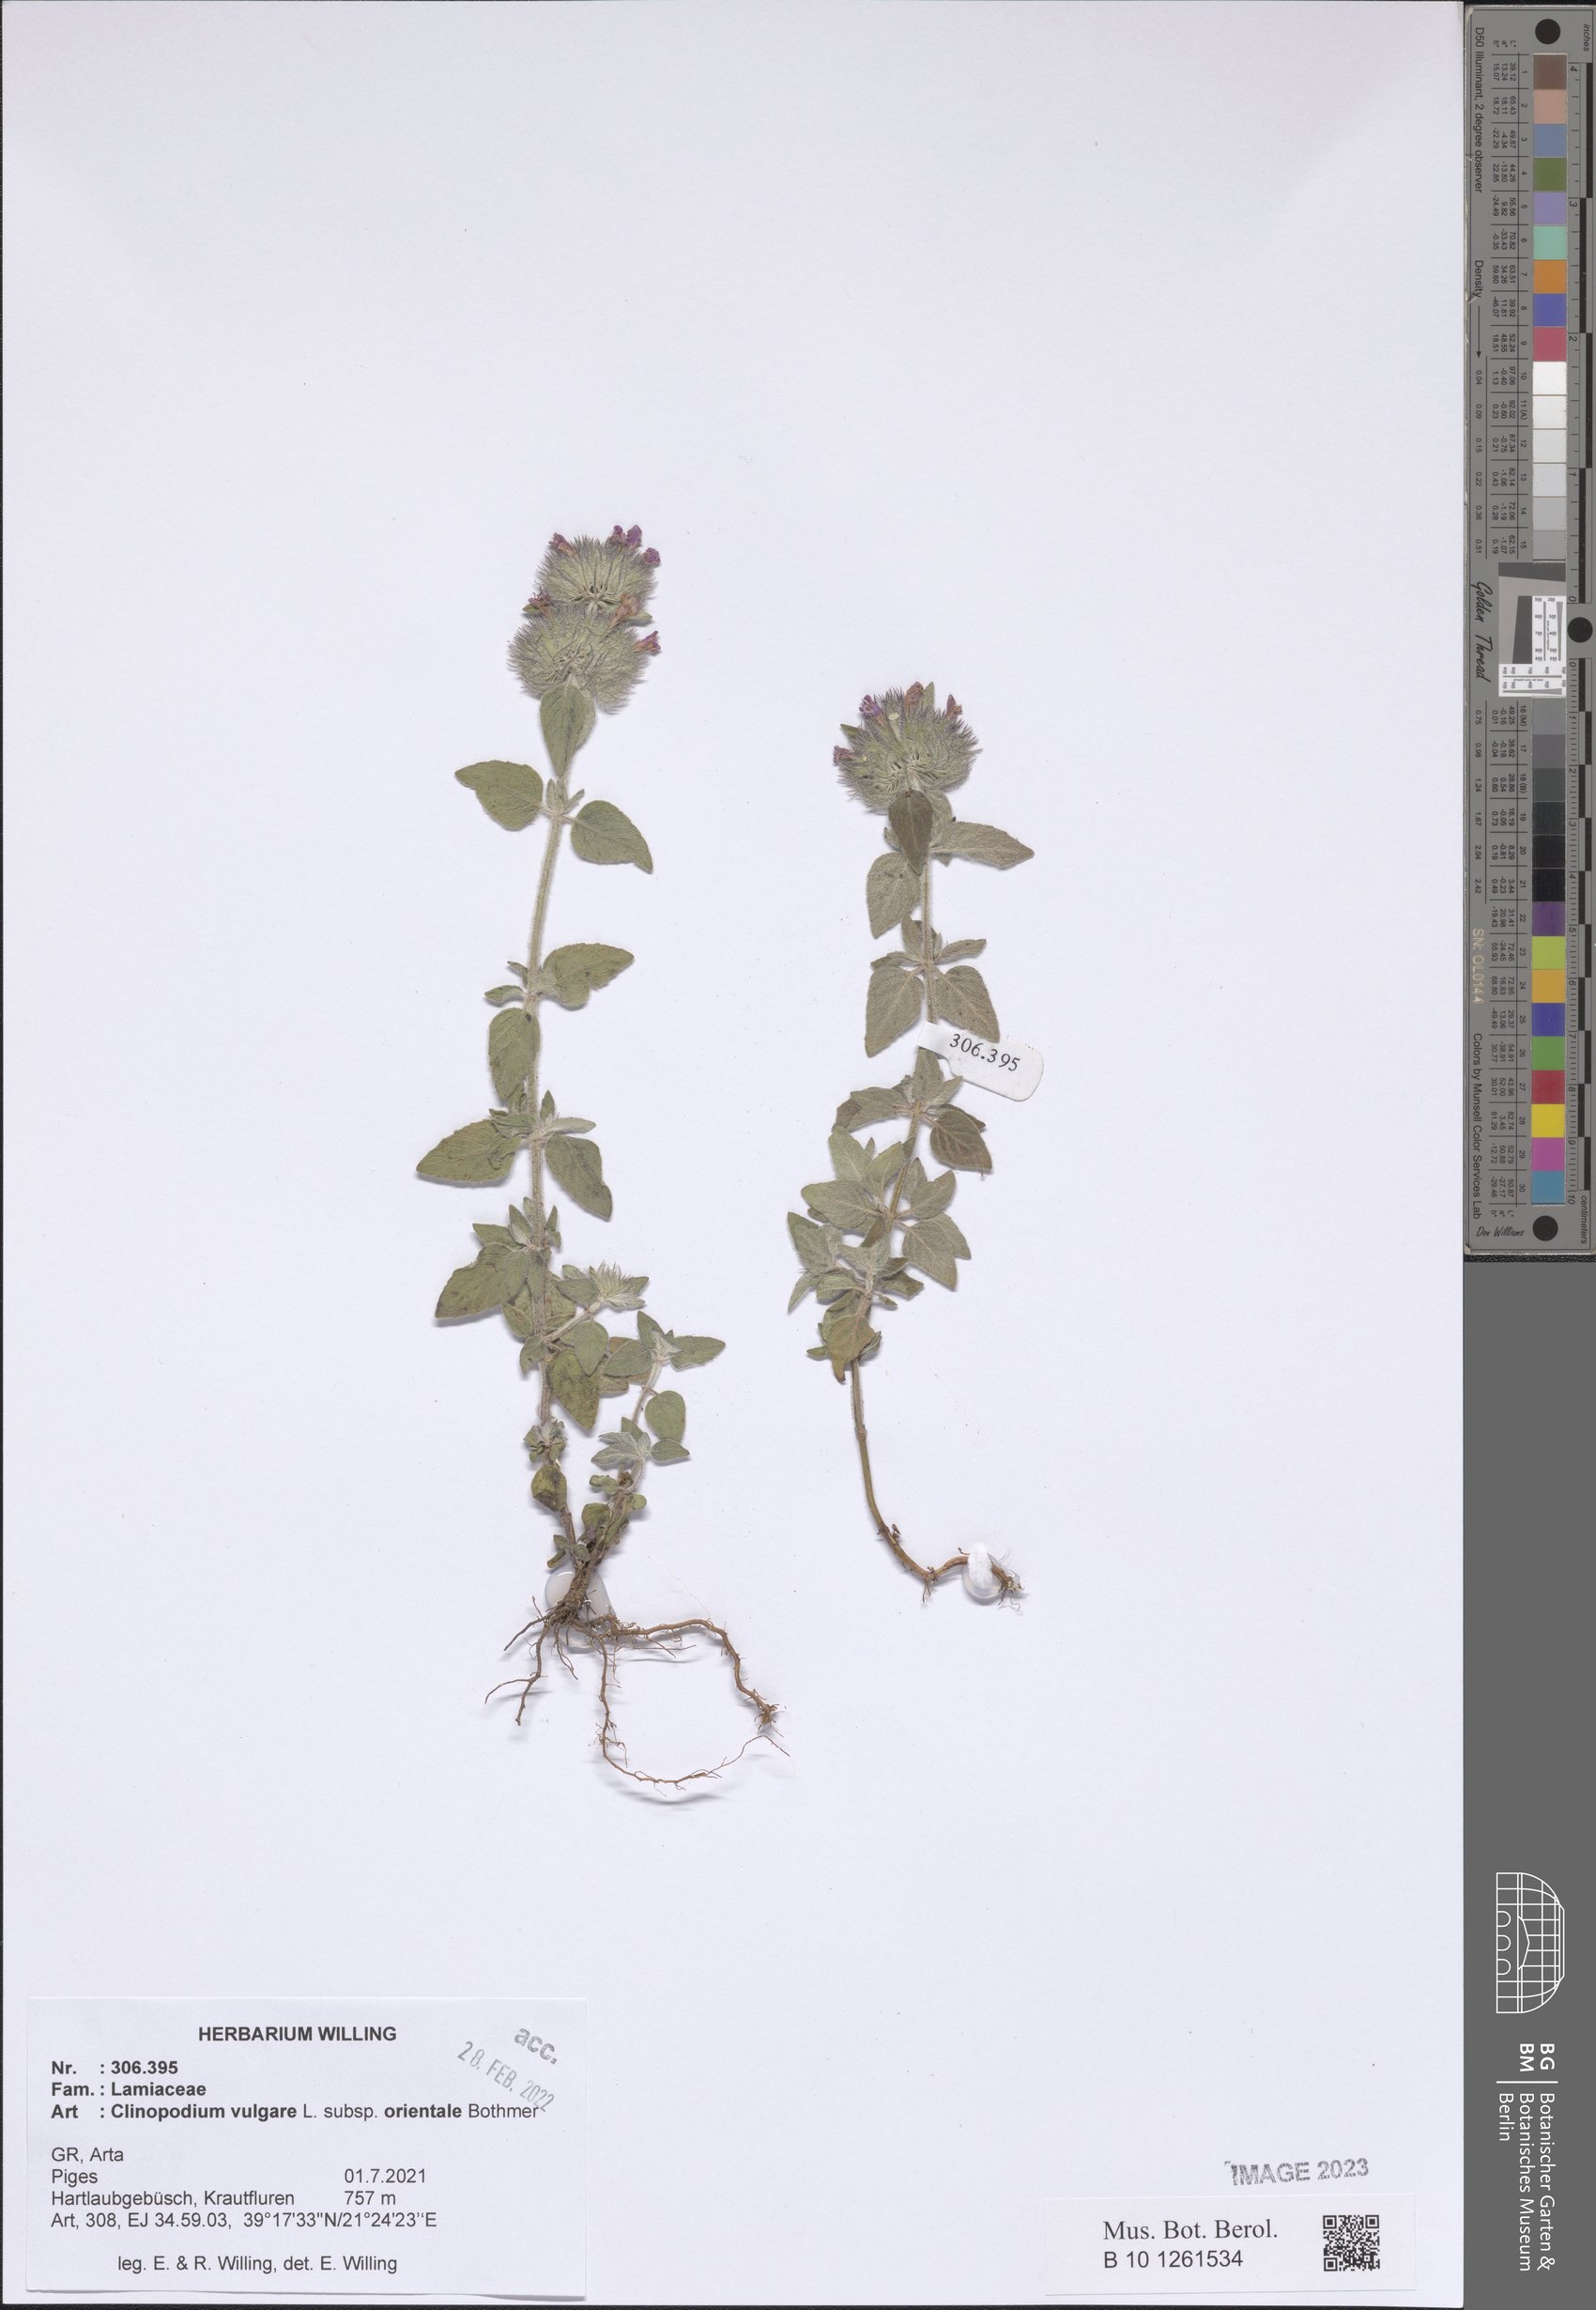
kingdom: Plantae
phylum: Tracheophyta
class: Magnoliopsida
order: Lamiales
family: Lamiaceae
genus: Clinopodium
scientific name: Clinopodium vulgare
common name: Wild basil
